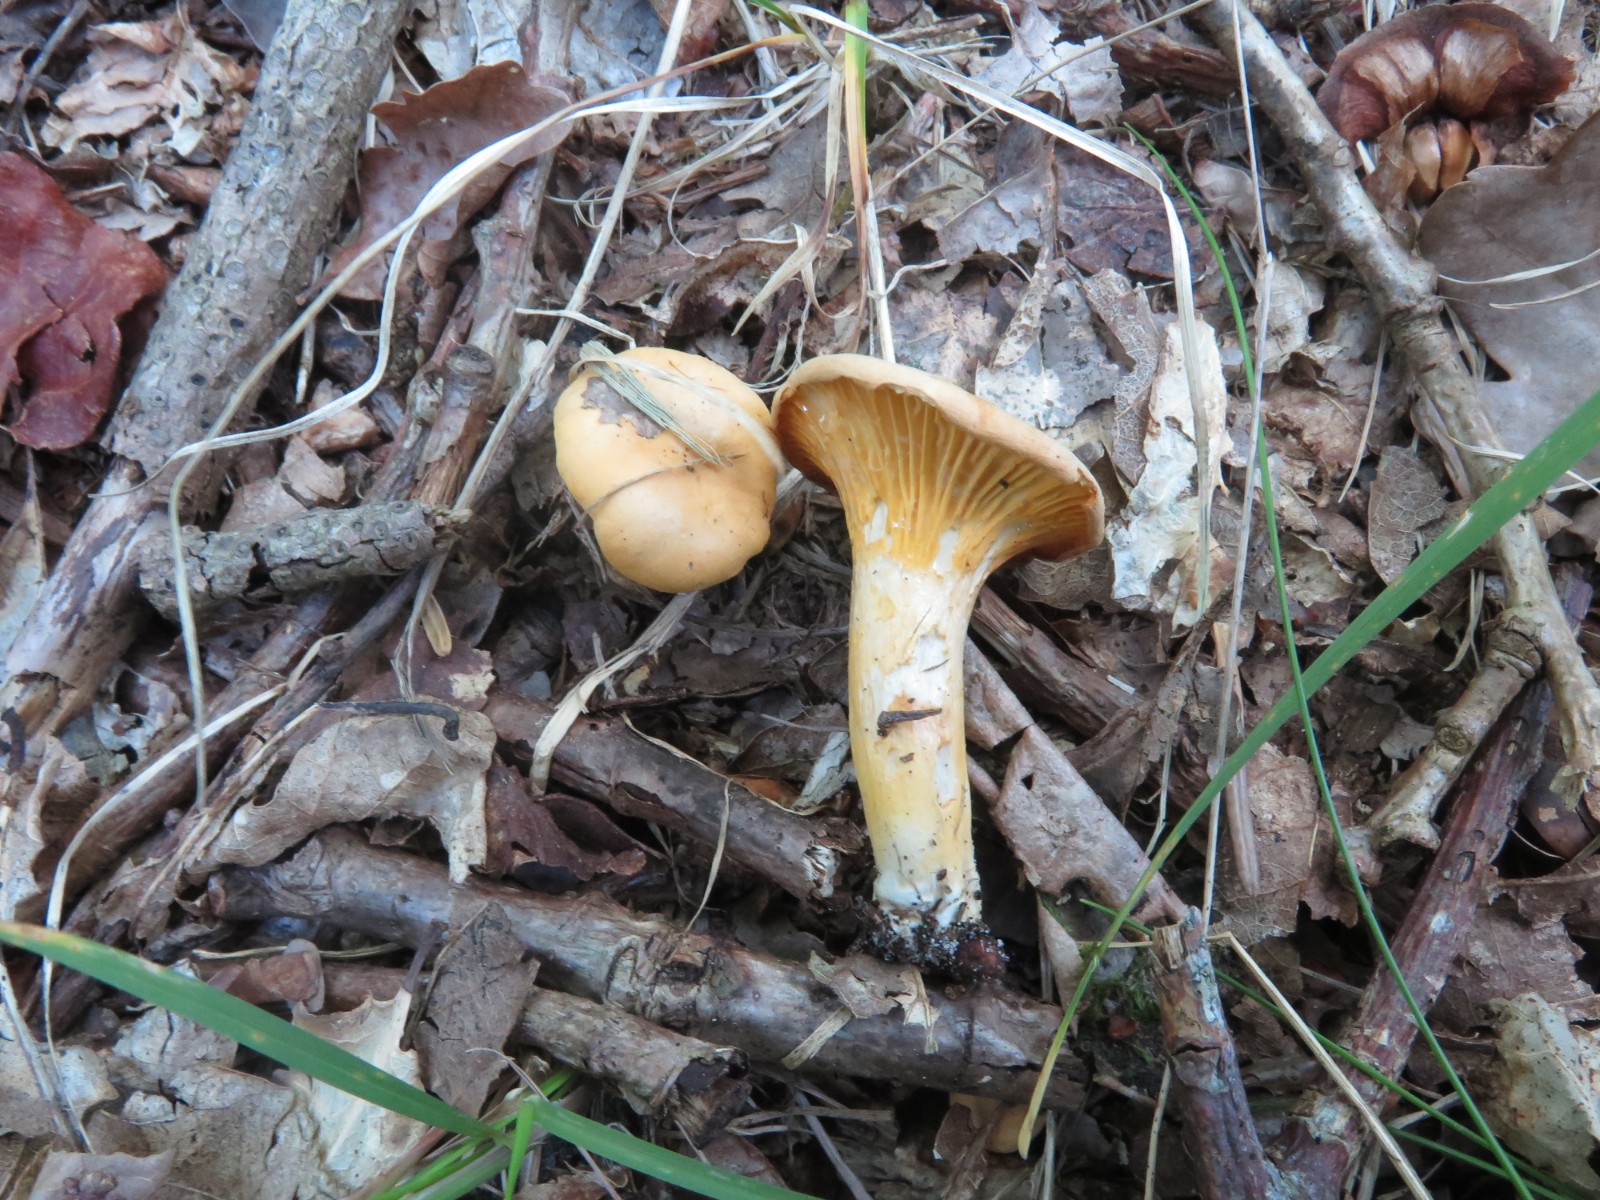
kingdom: Fungi
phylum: Basidiomycota
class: Agaricomycetes
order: Cantharellales
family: Hydnaceae
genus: Cantharellus
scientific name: Cantharellus cibarius
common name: almindelig kantarel
